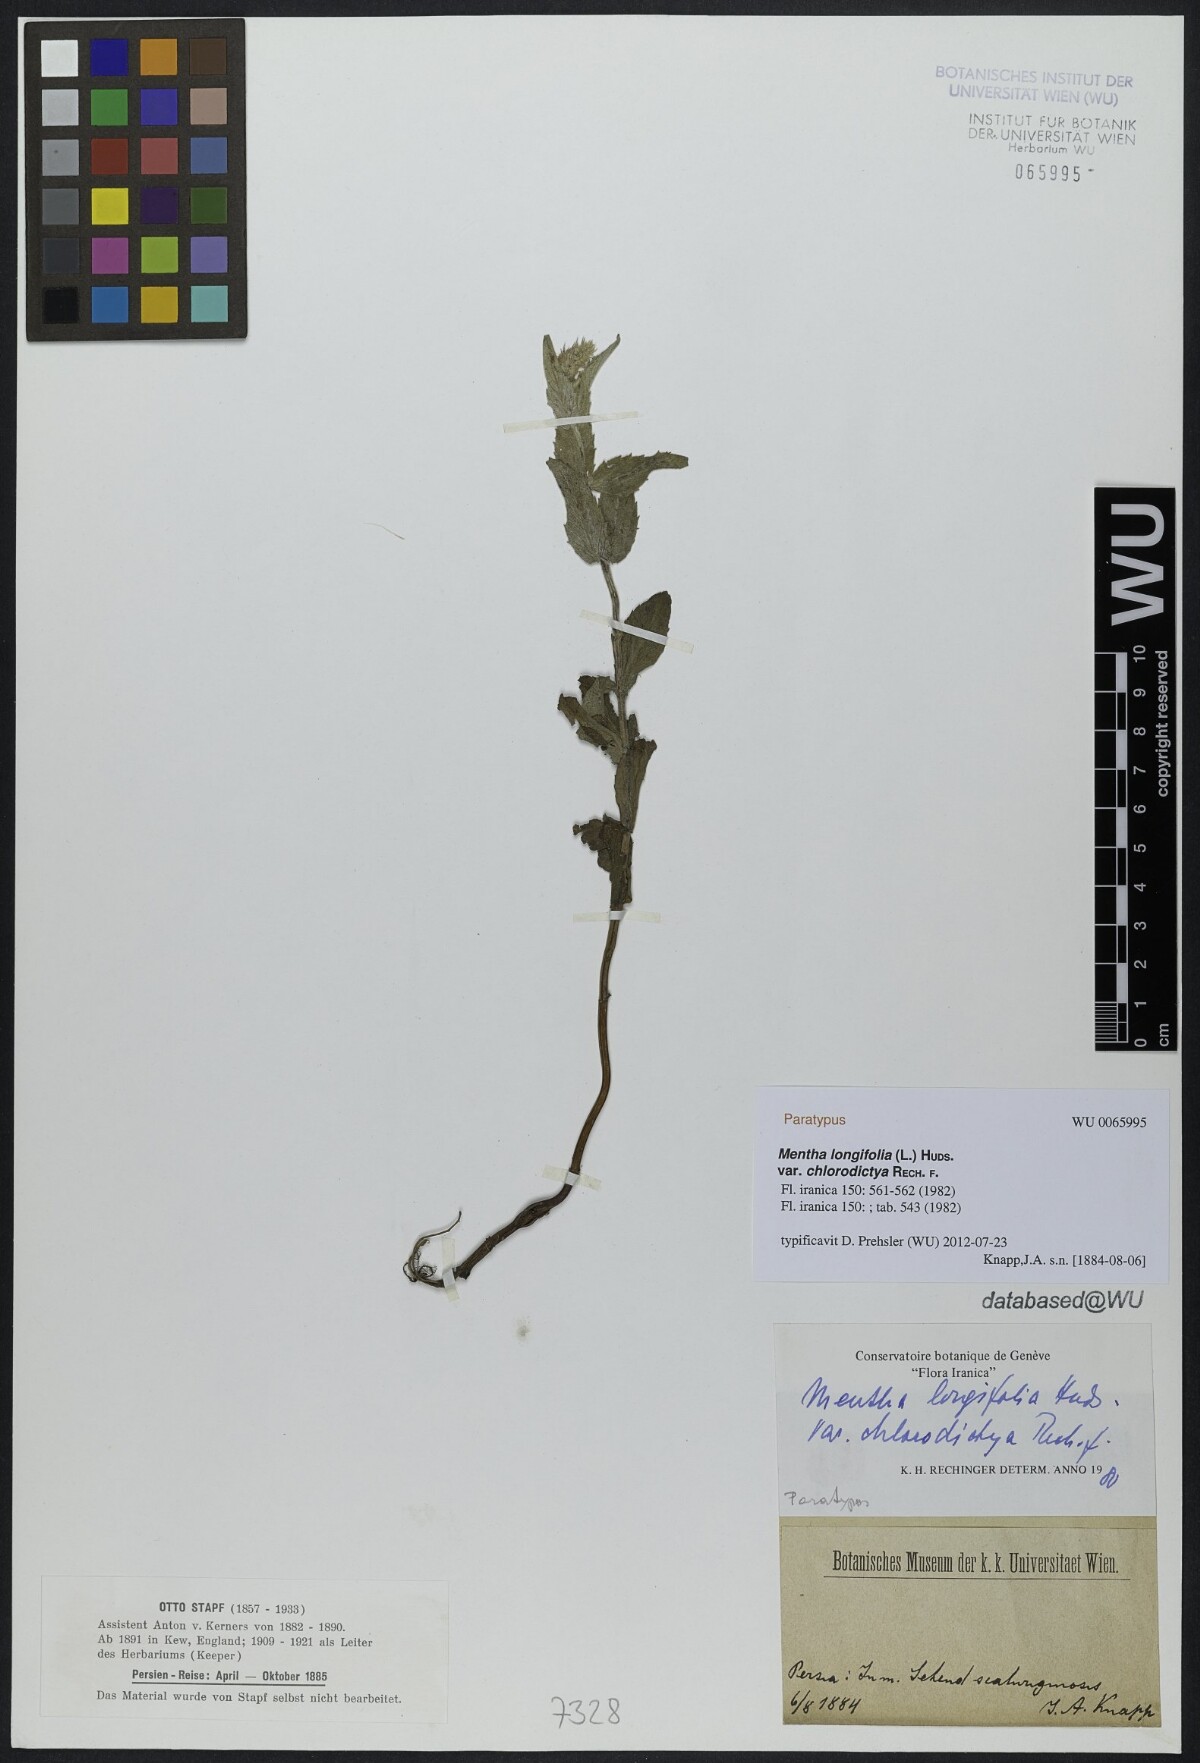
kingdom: Plantae
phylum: Tracheophyta
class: Magnoliopsida
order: Lamiales
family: Lamiaceae
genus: Mentha
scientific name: Mentha longifolia
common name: Horse mint
